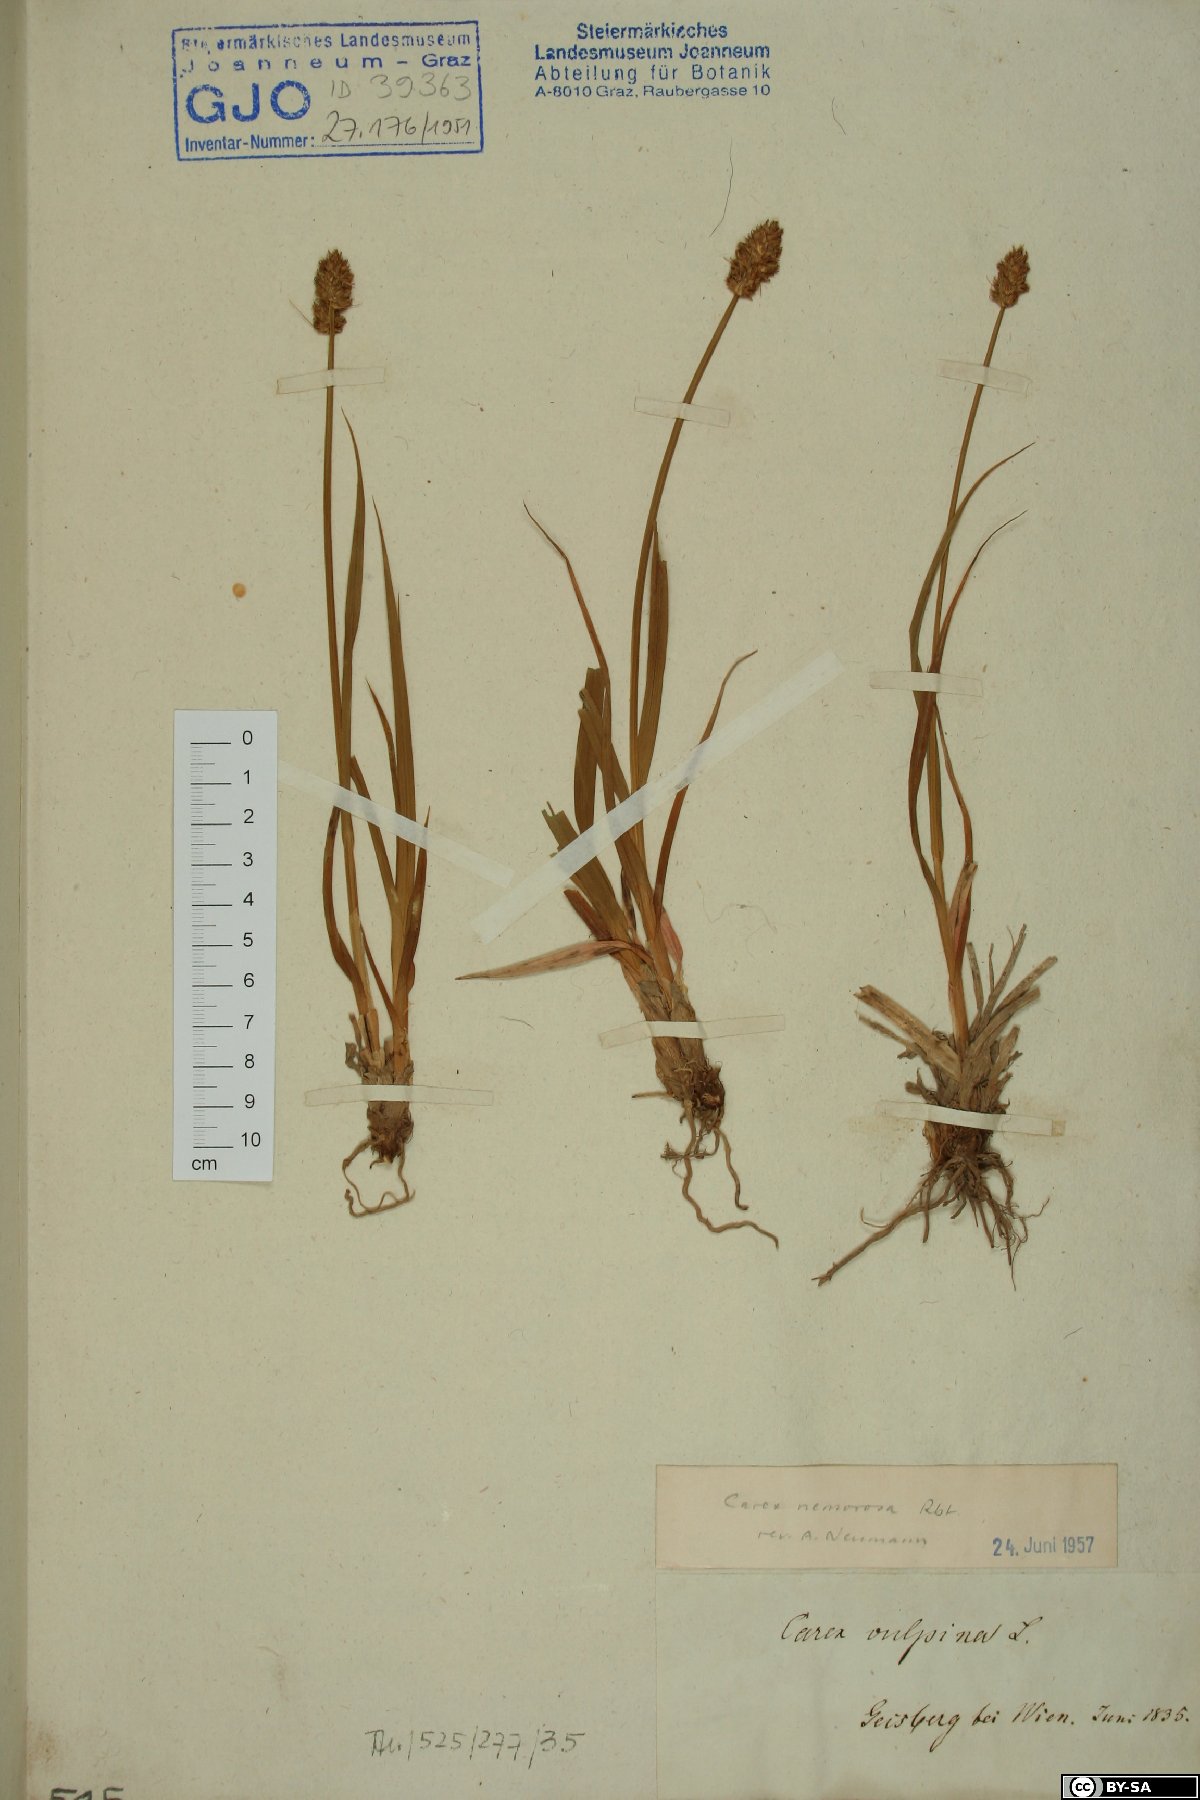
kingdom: Plantae
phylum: Tracheophyta
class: Liliopsida
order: Poales
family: Cyperaceae
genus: Carex
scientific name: Carex otrubae
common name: False fox-sedge
